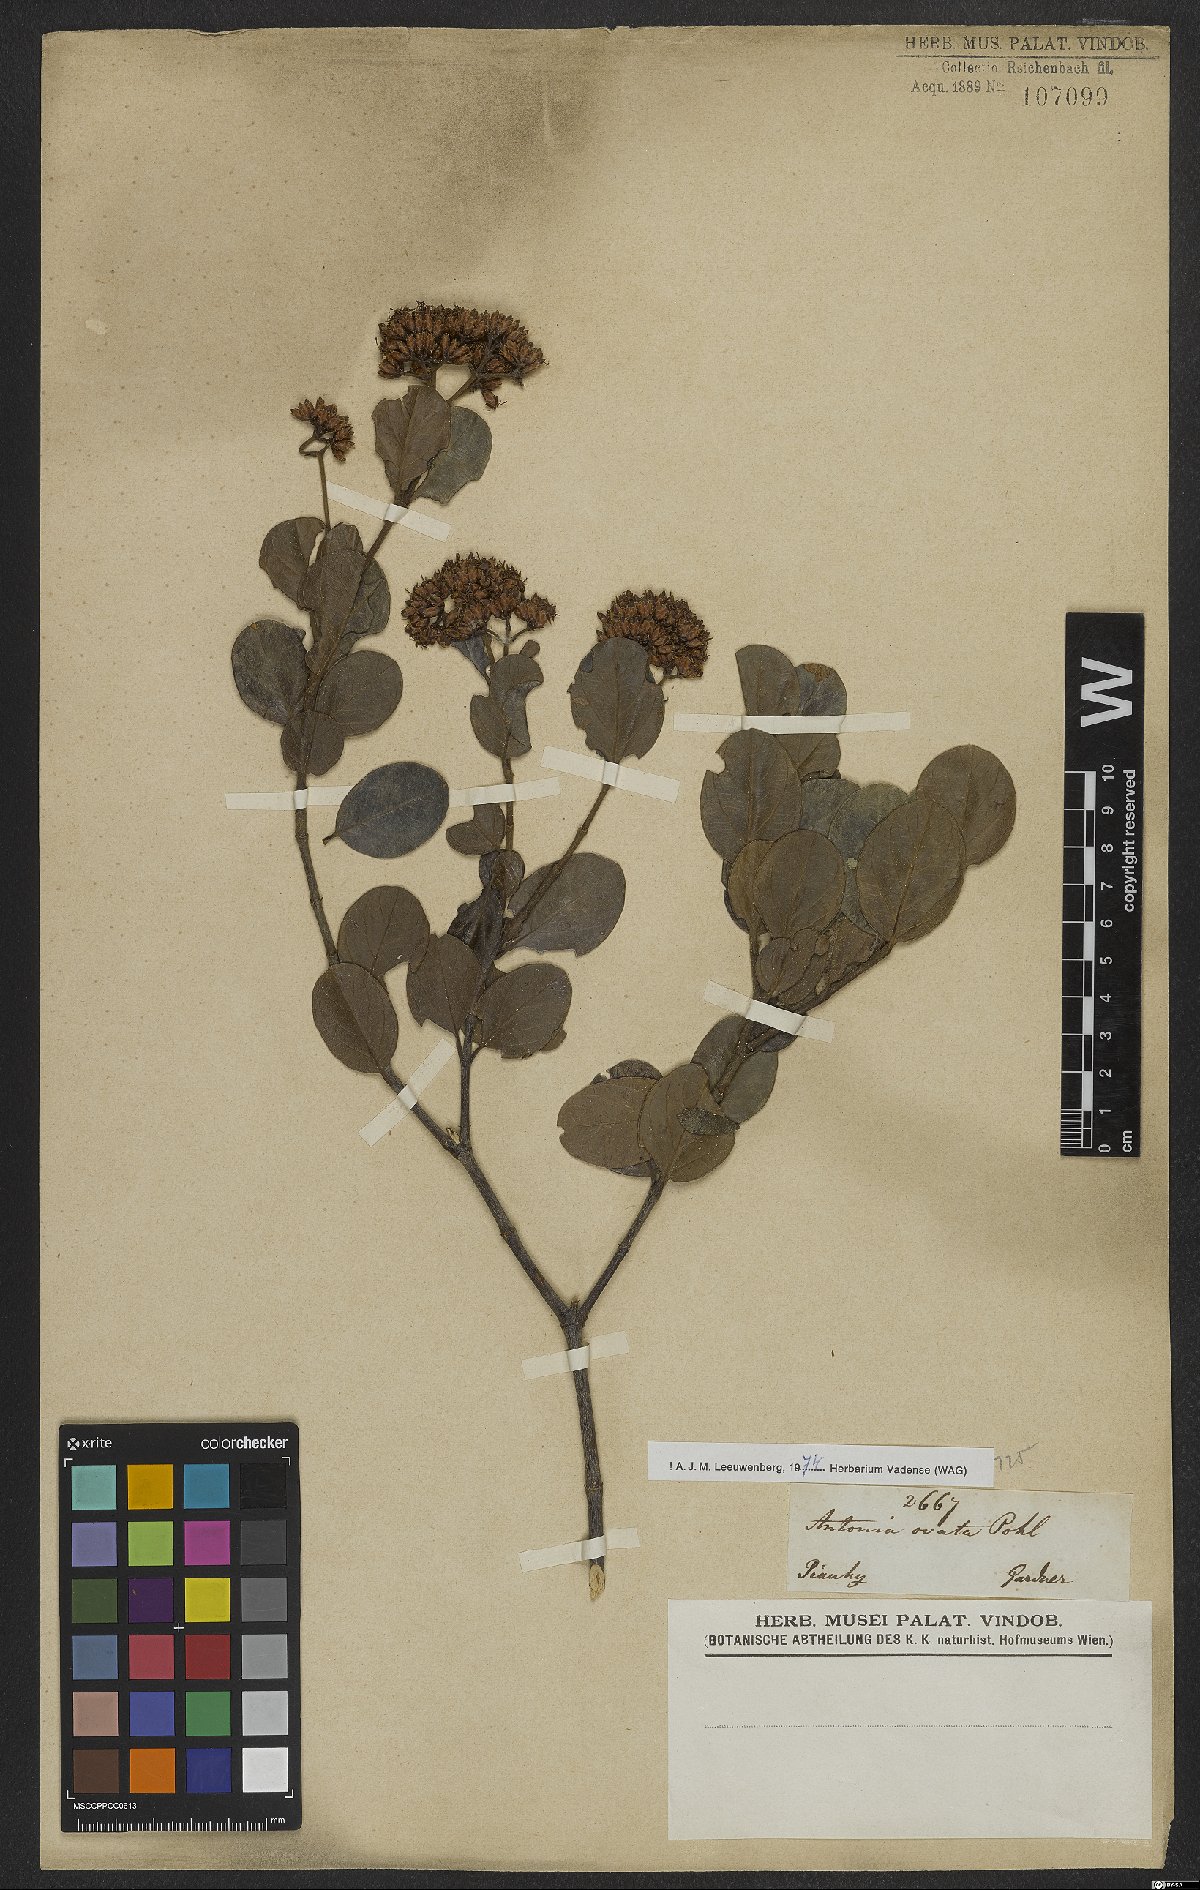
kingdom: Plantae
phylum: Tracheophyta
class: Magnoliopsida
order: Gentianales
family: Loganiaceae
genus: Antonia
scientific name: Antonia ovata
